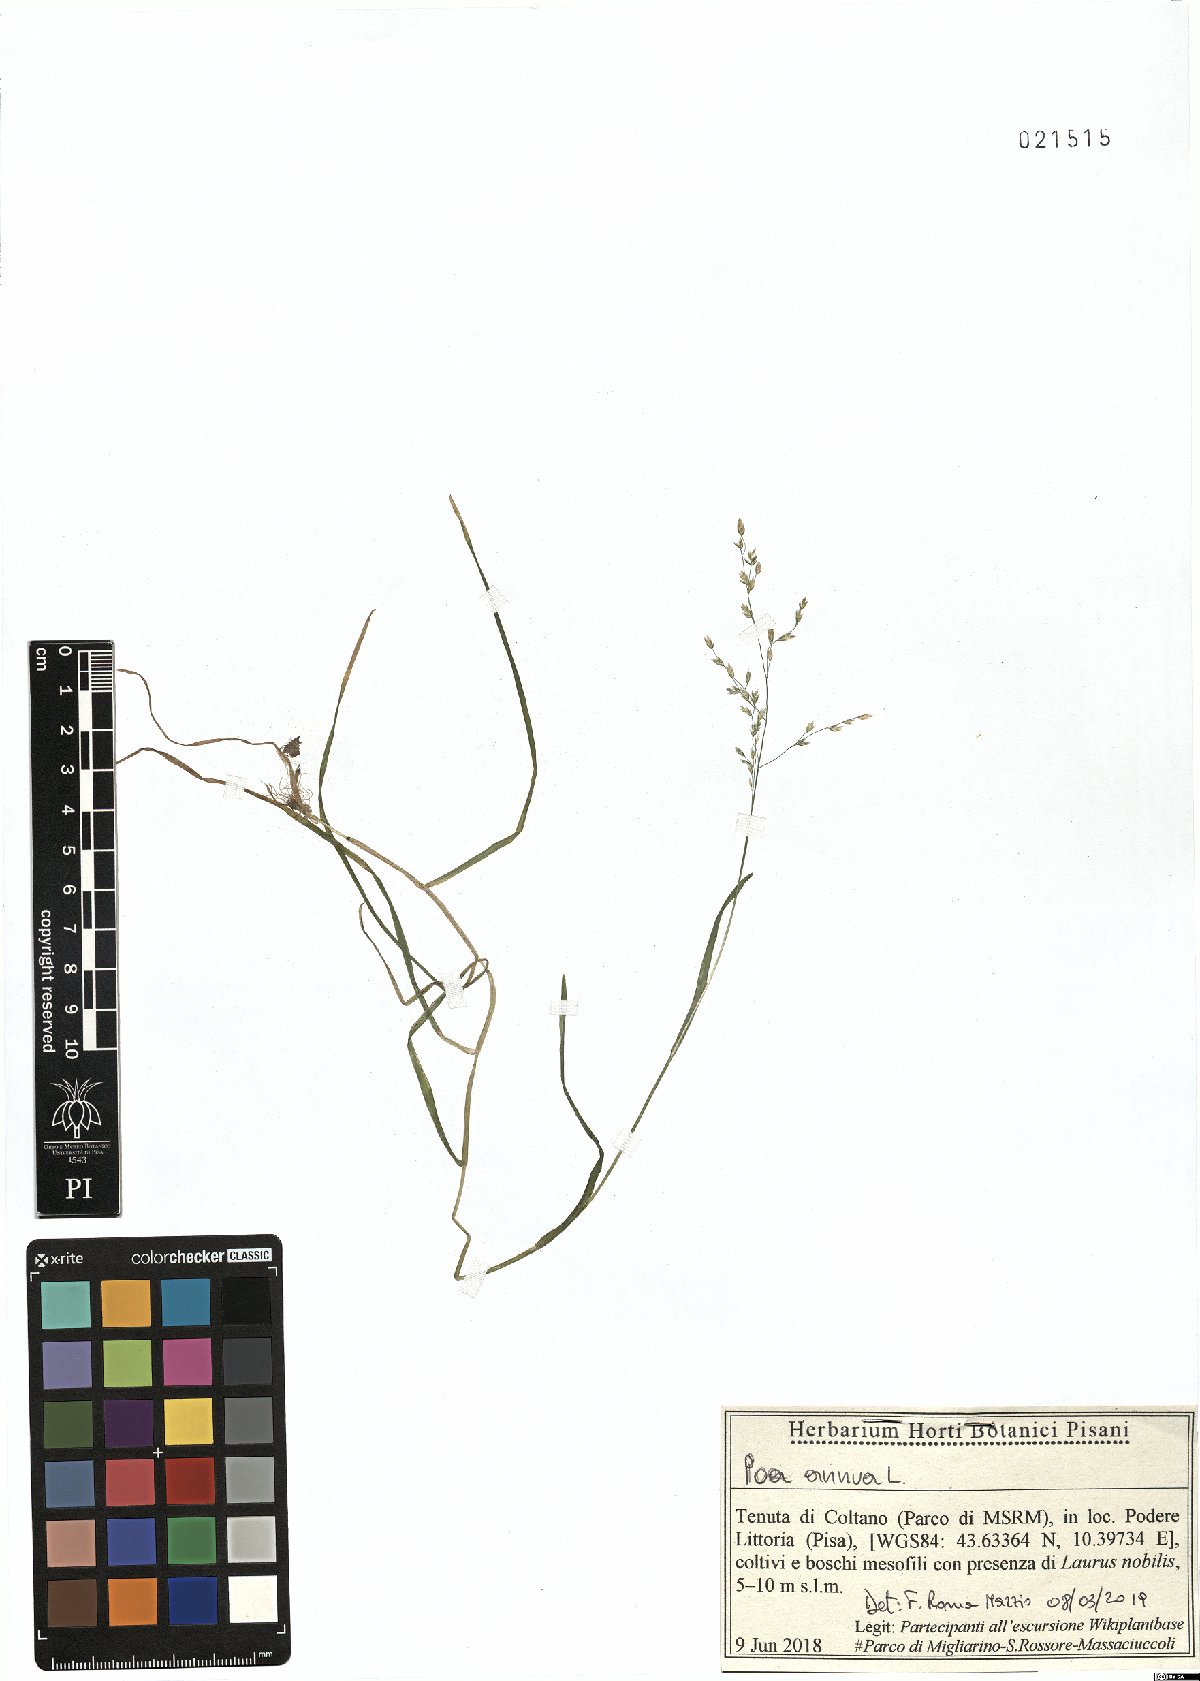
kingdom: Plantae
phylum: Tracheophyta
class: Liliopsida
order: Poales
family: Poaceae
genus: Poa
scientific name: Poa annua
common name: Annual bluegrass
